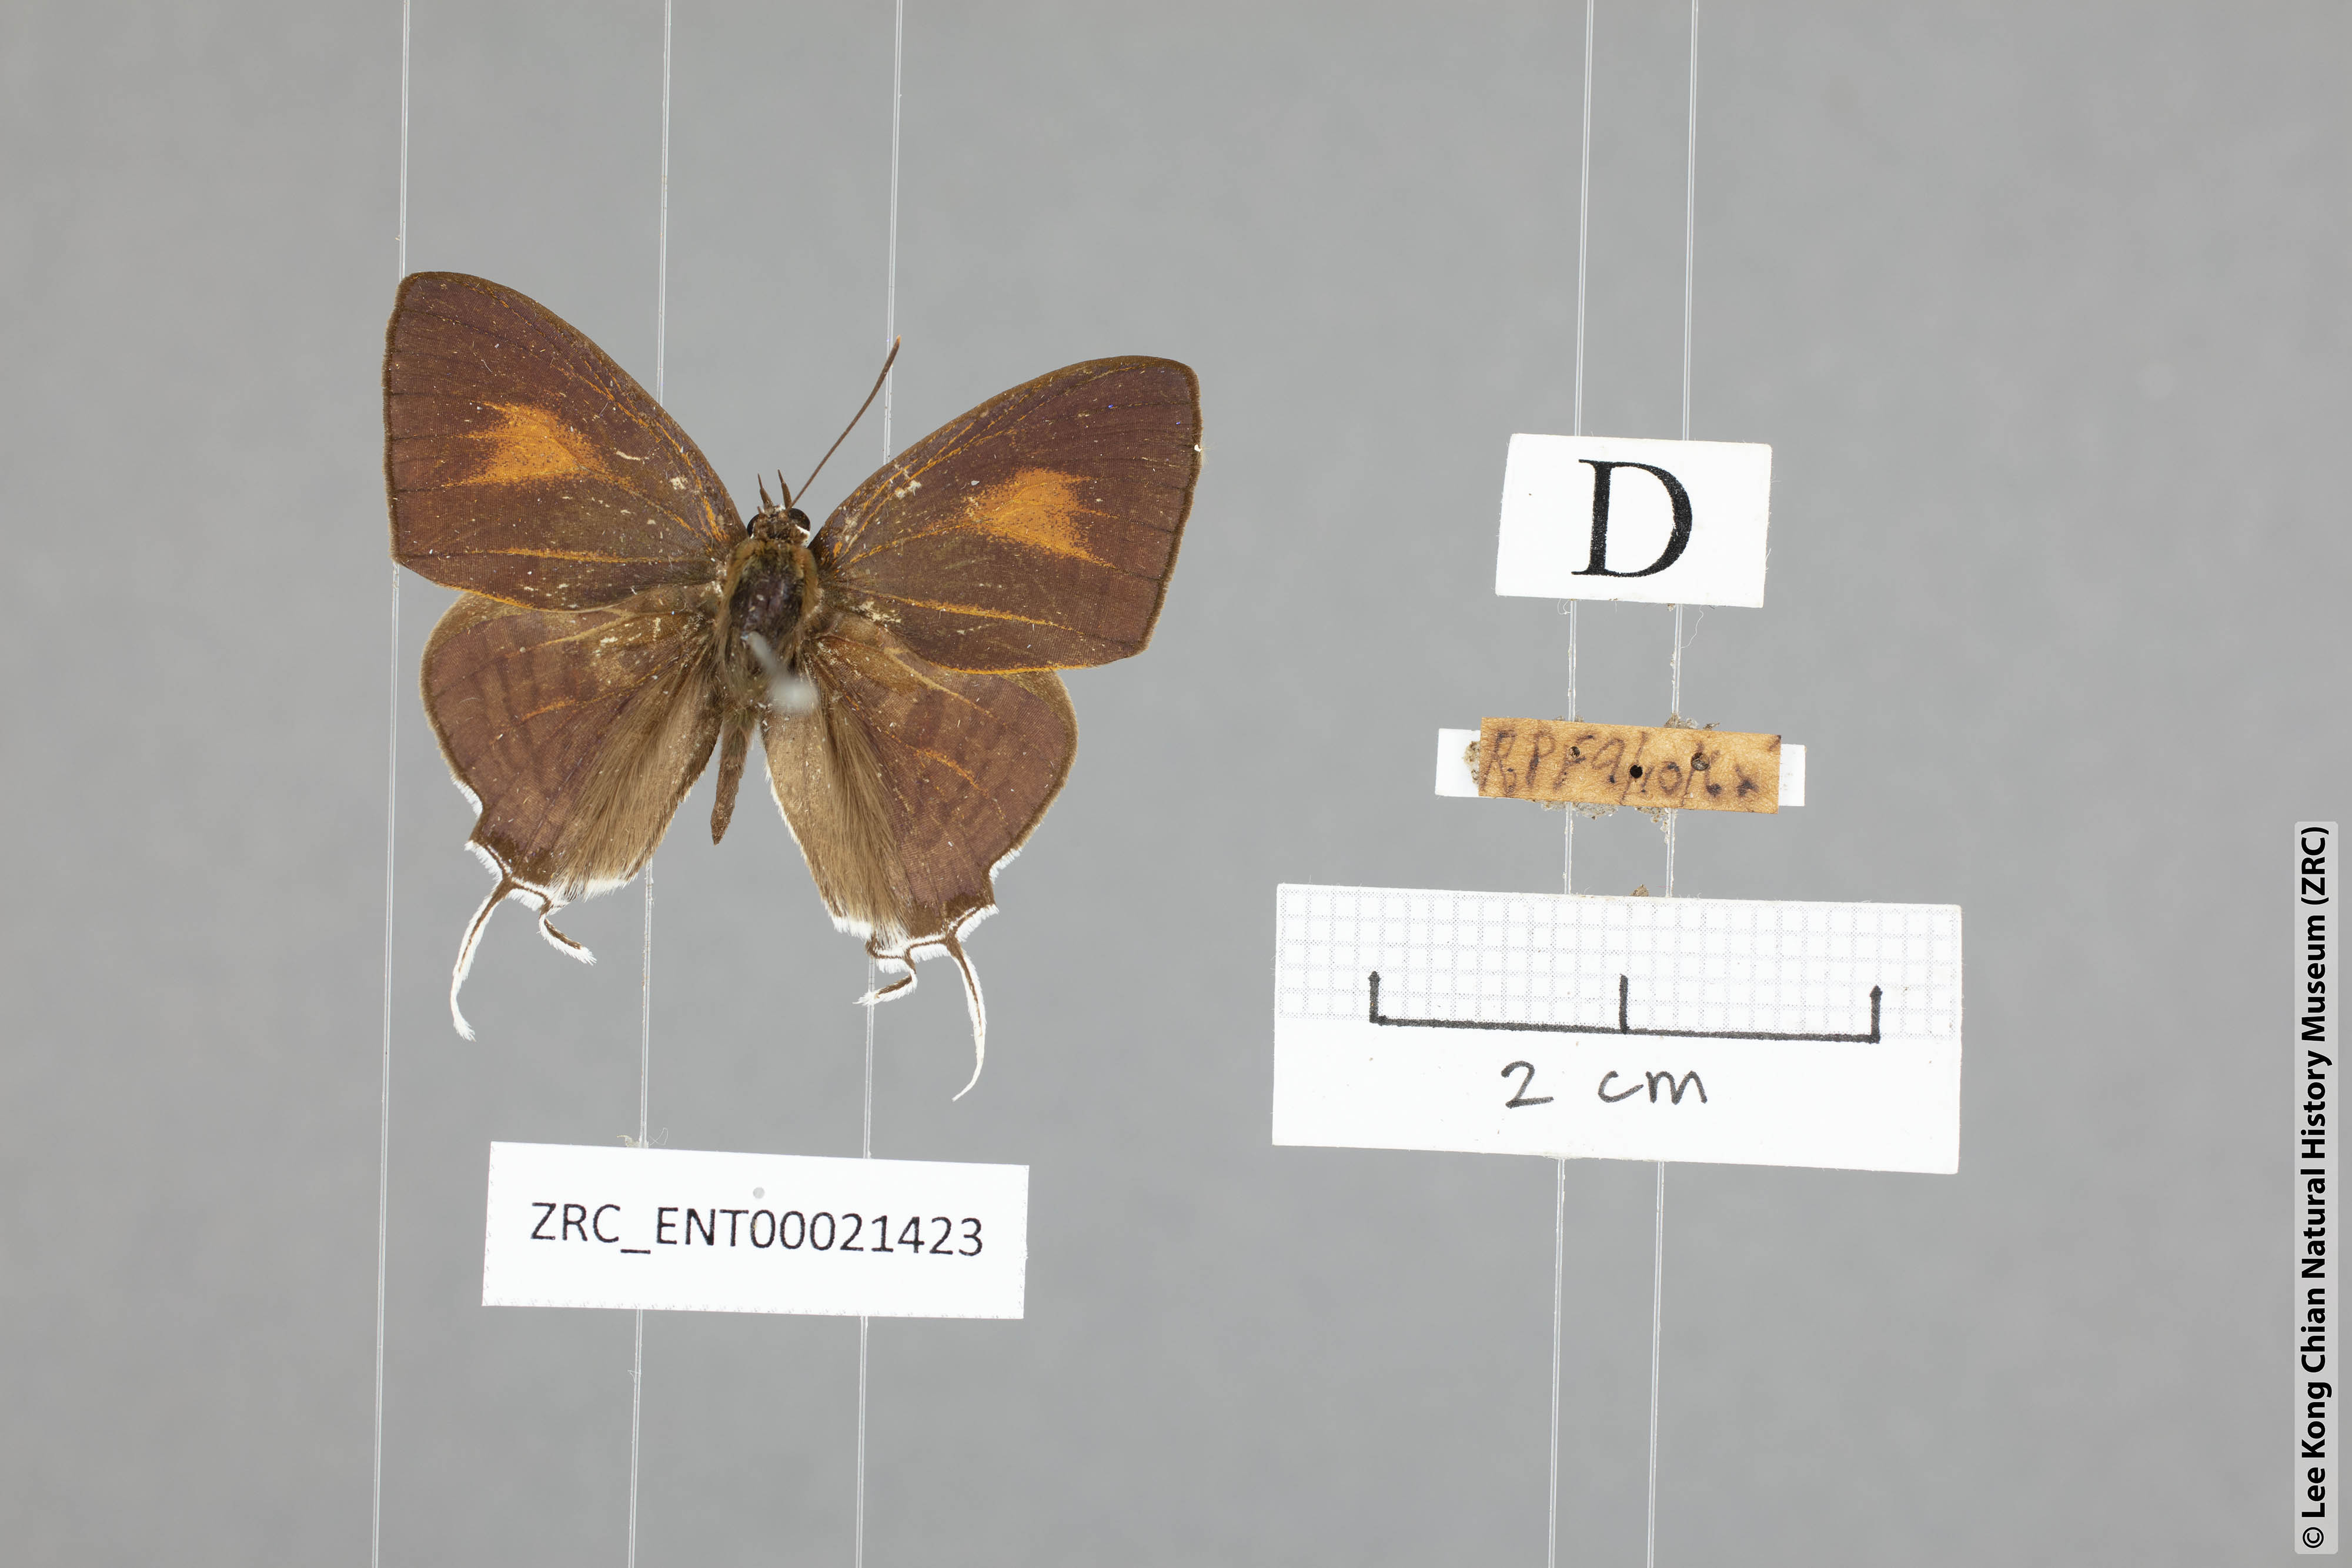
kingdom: Animalia
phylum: Arthropoda
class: Insecta
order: Lepidoptera
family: Lycaenidae
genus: Drupadia
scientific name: Drupadia theda
